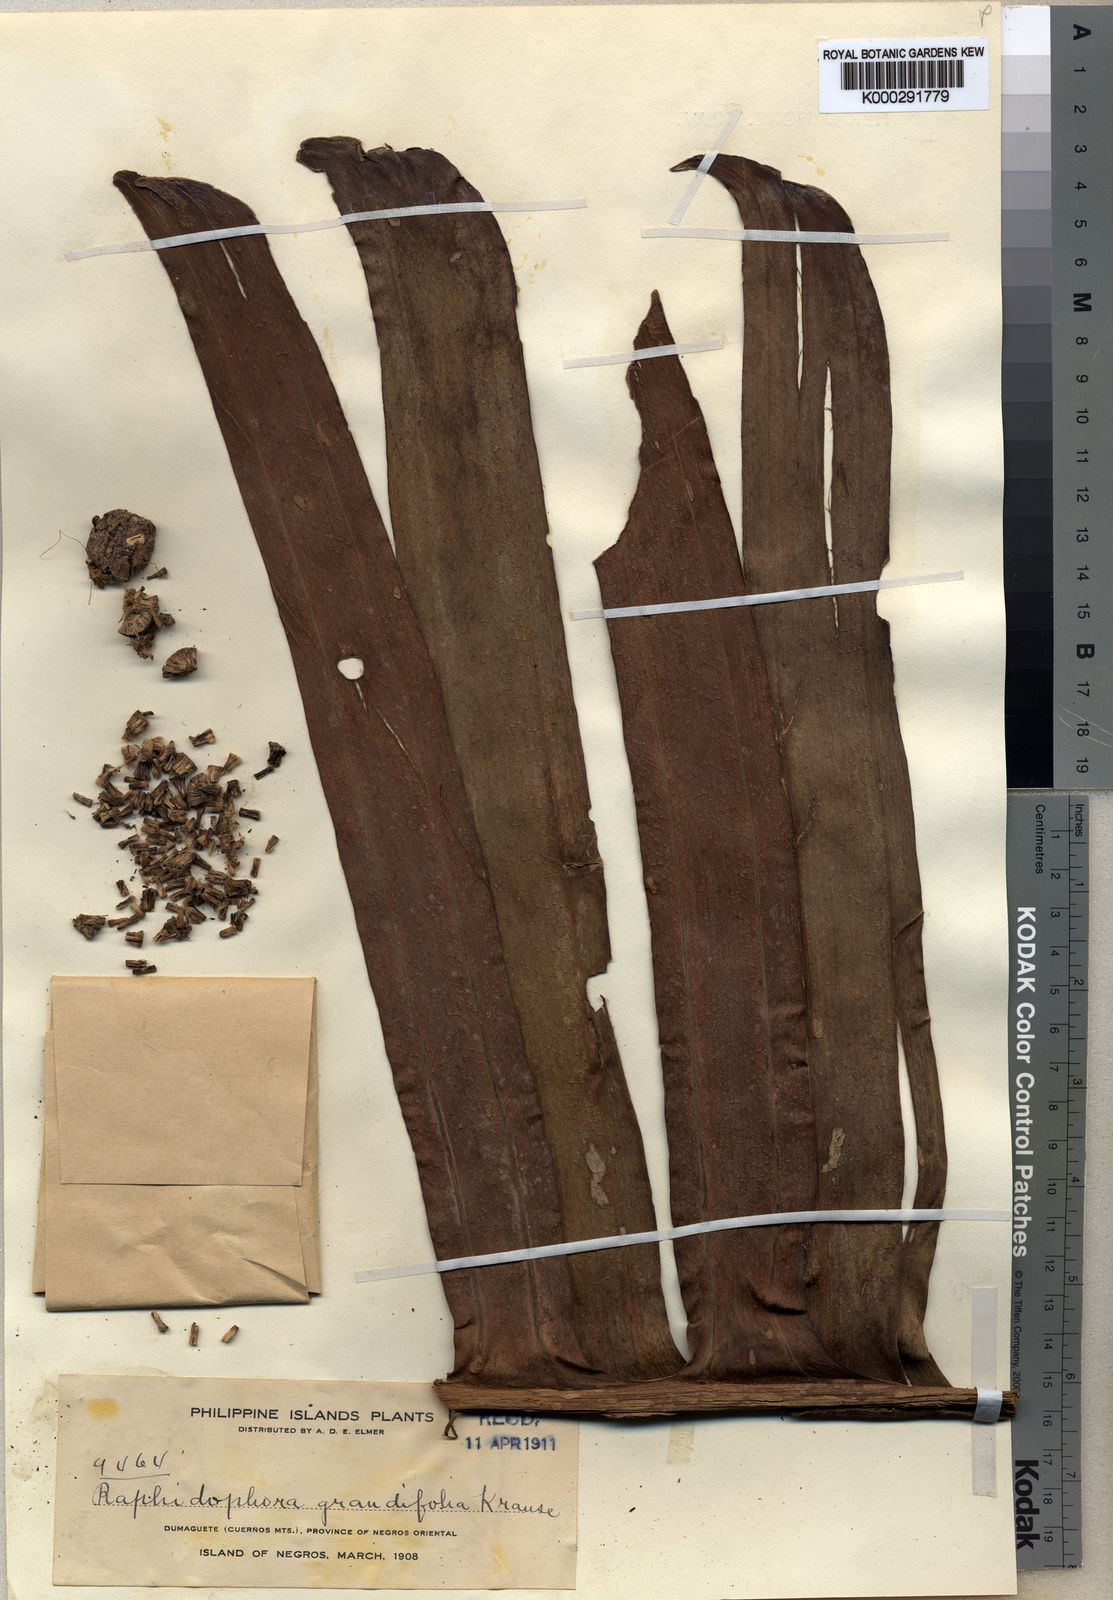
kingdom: Plantae
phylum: Tracheophyta
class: Liliopsida
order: Alismatales
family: Araceae
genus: Rhaphidophora
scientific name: Rhaphidophora korthalsii
